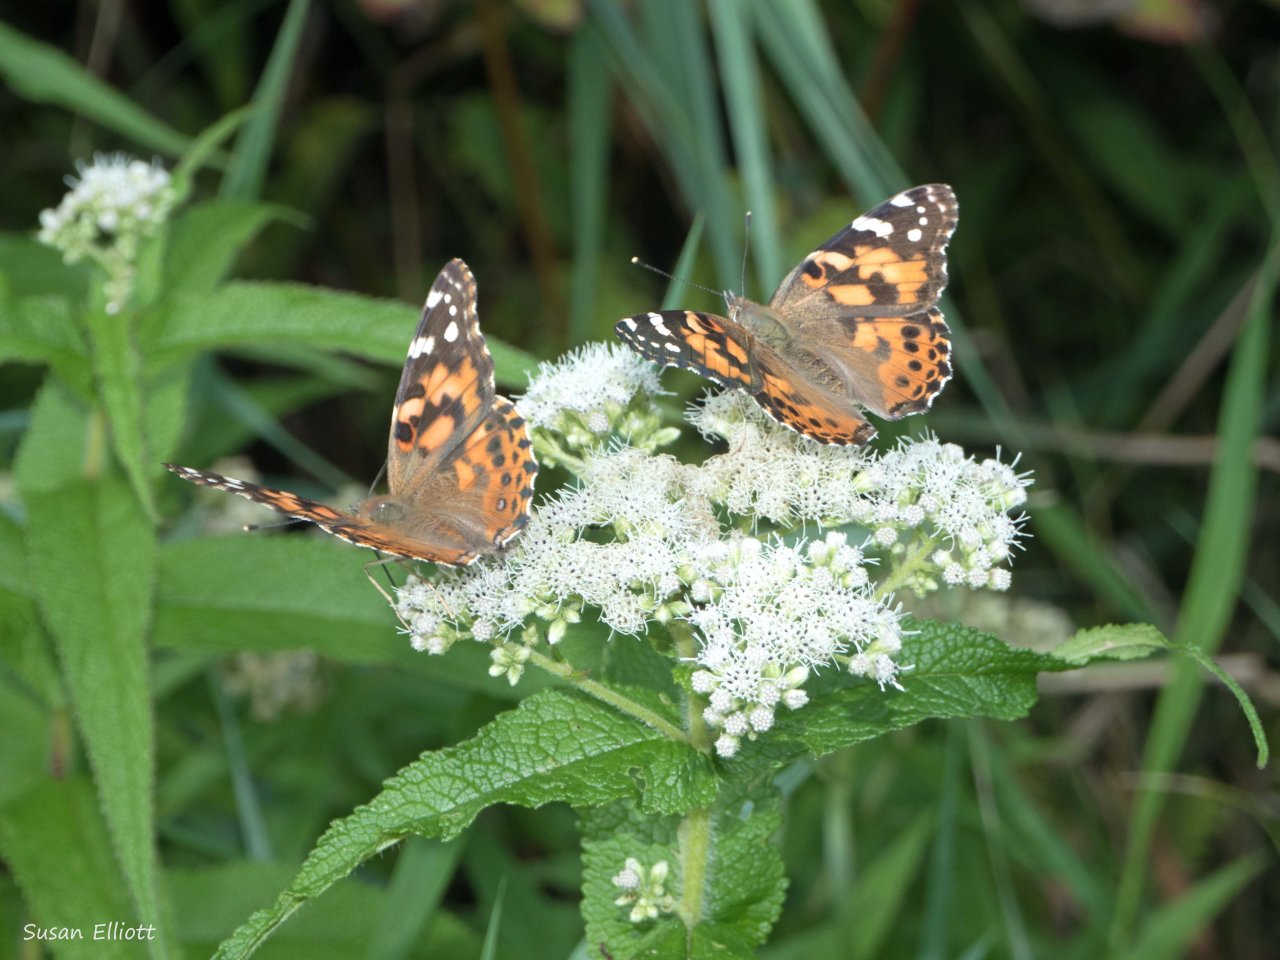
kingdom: Animalia
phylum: Arthropoda
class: Insecta
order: Lepidoptera
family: Nymphalidae
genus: Vanessa
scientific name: Vanessa cardui
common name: Painted Lady
